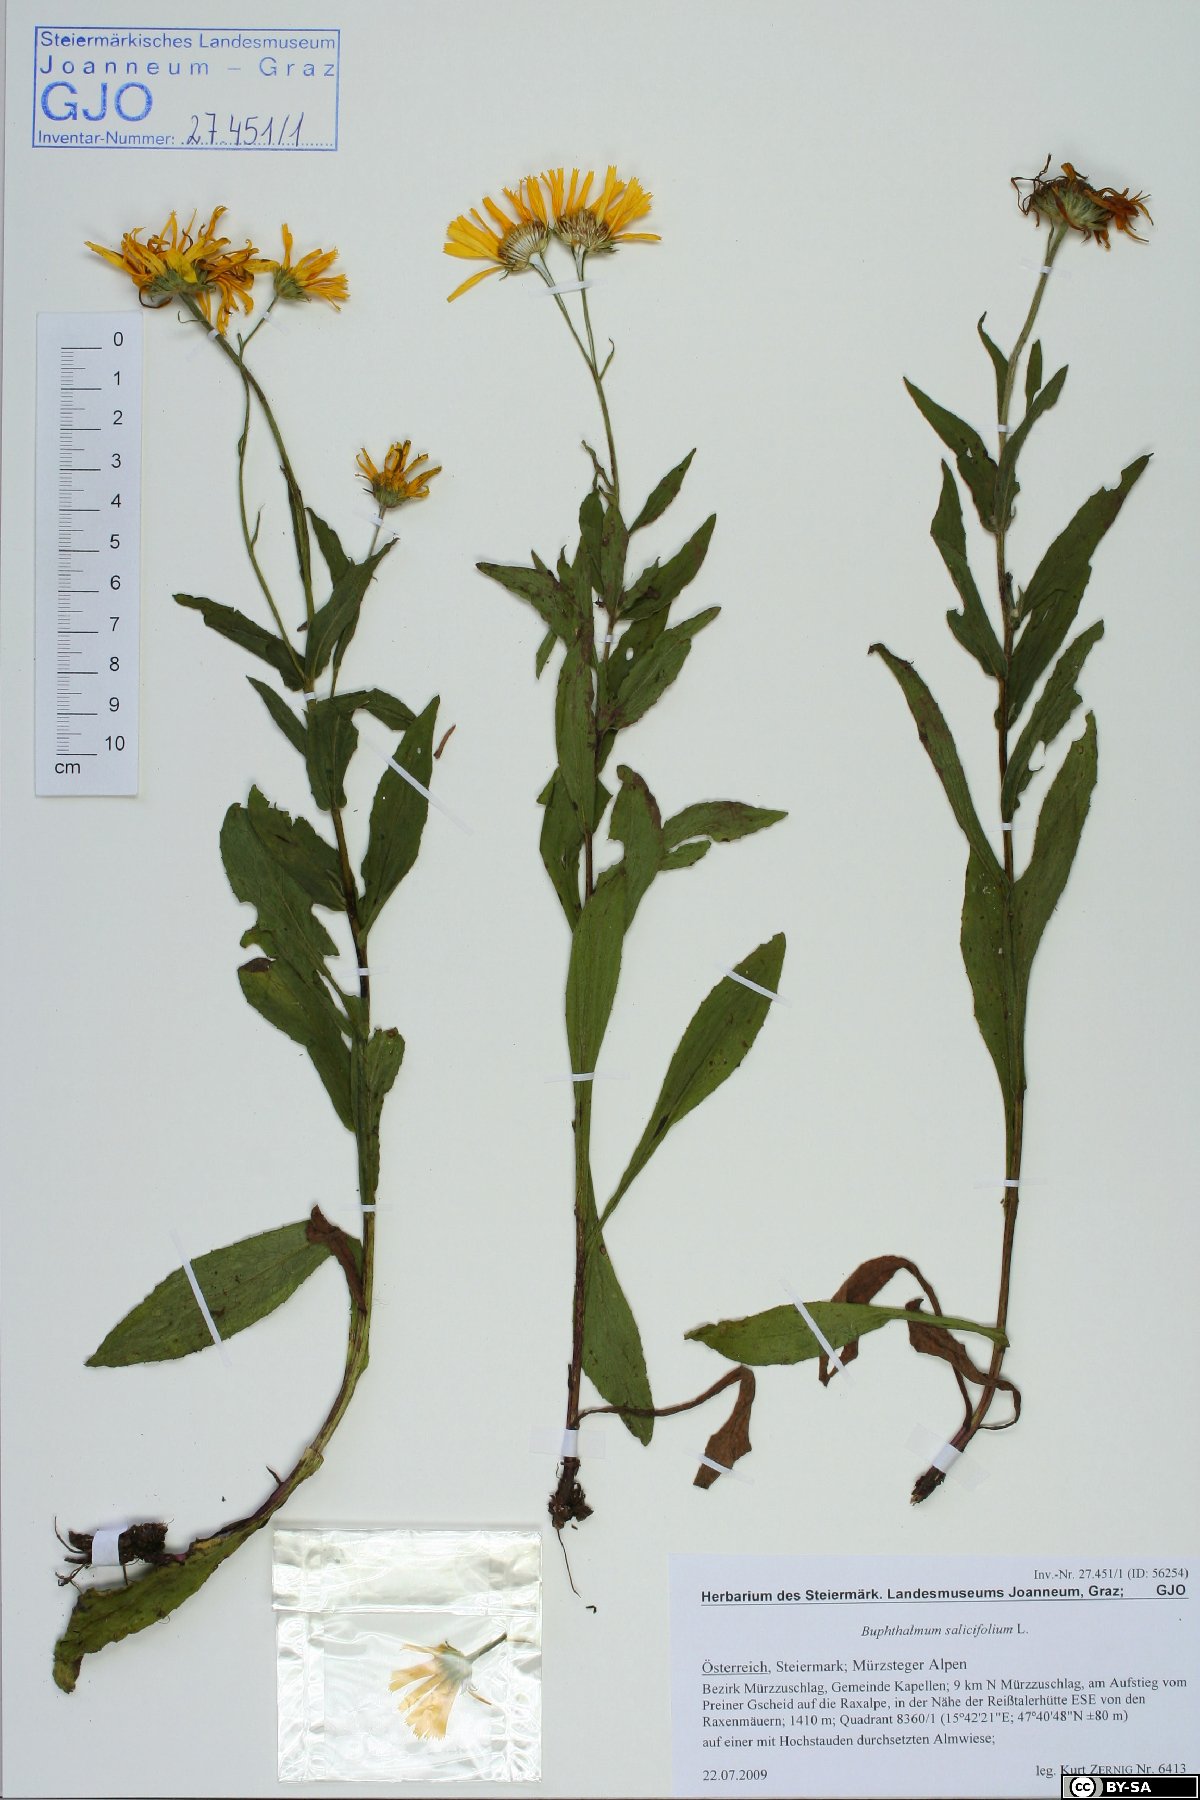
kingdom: Plantae
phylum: Tracheophyta
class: Magnoliopsida
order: Asterales
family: Asteraceae
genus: Buphthalmum
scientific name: Buphthalmum salicifolium
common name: Willow-leaved yellow-oxeye
